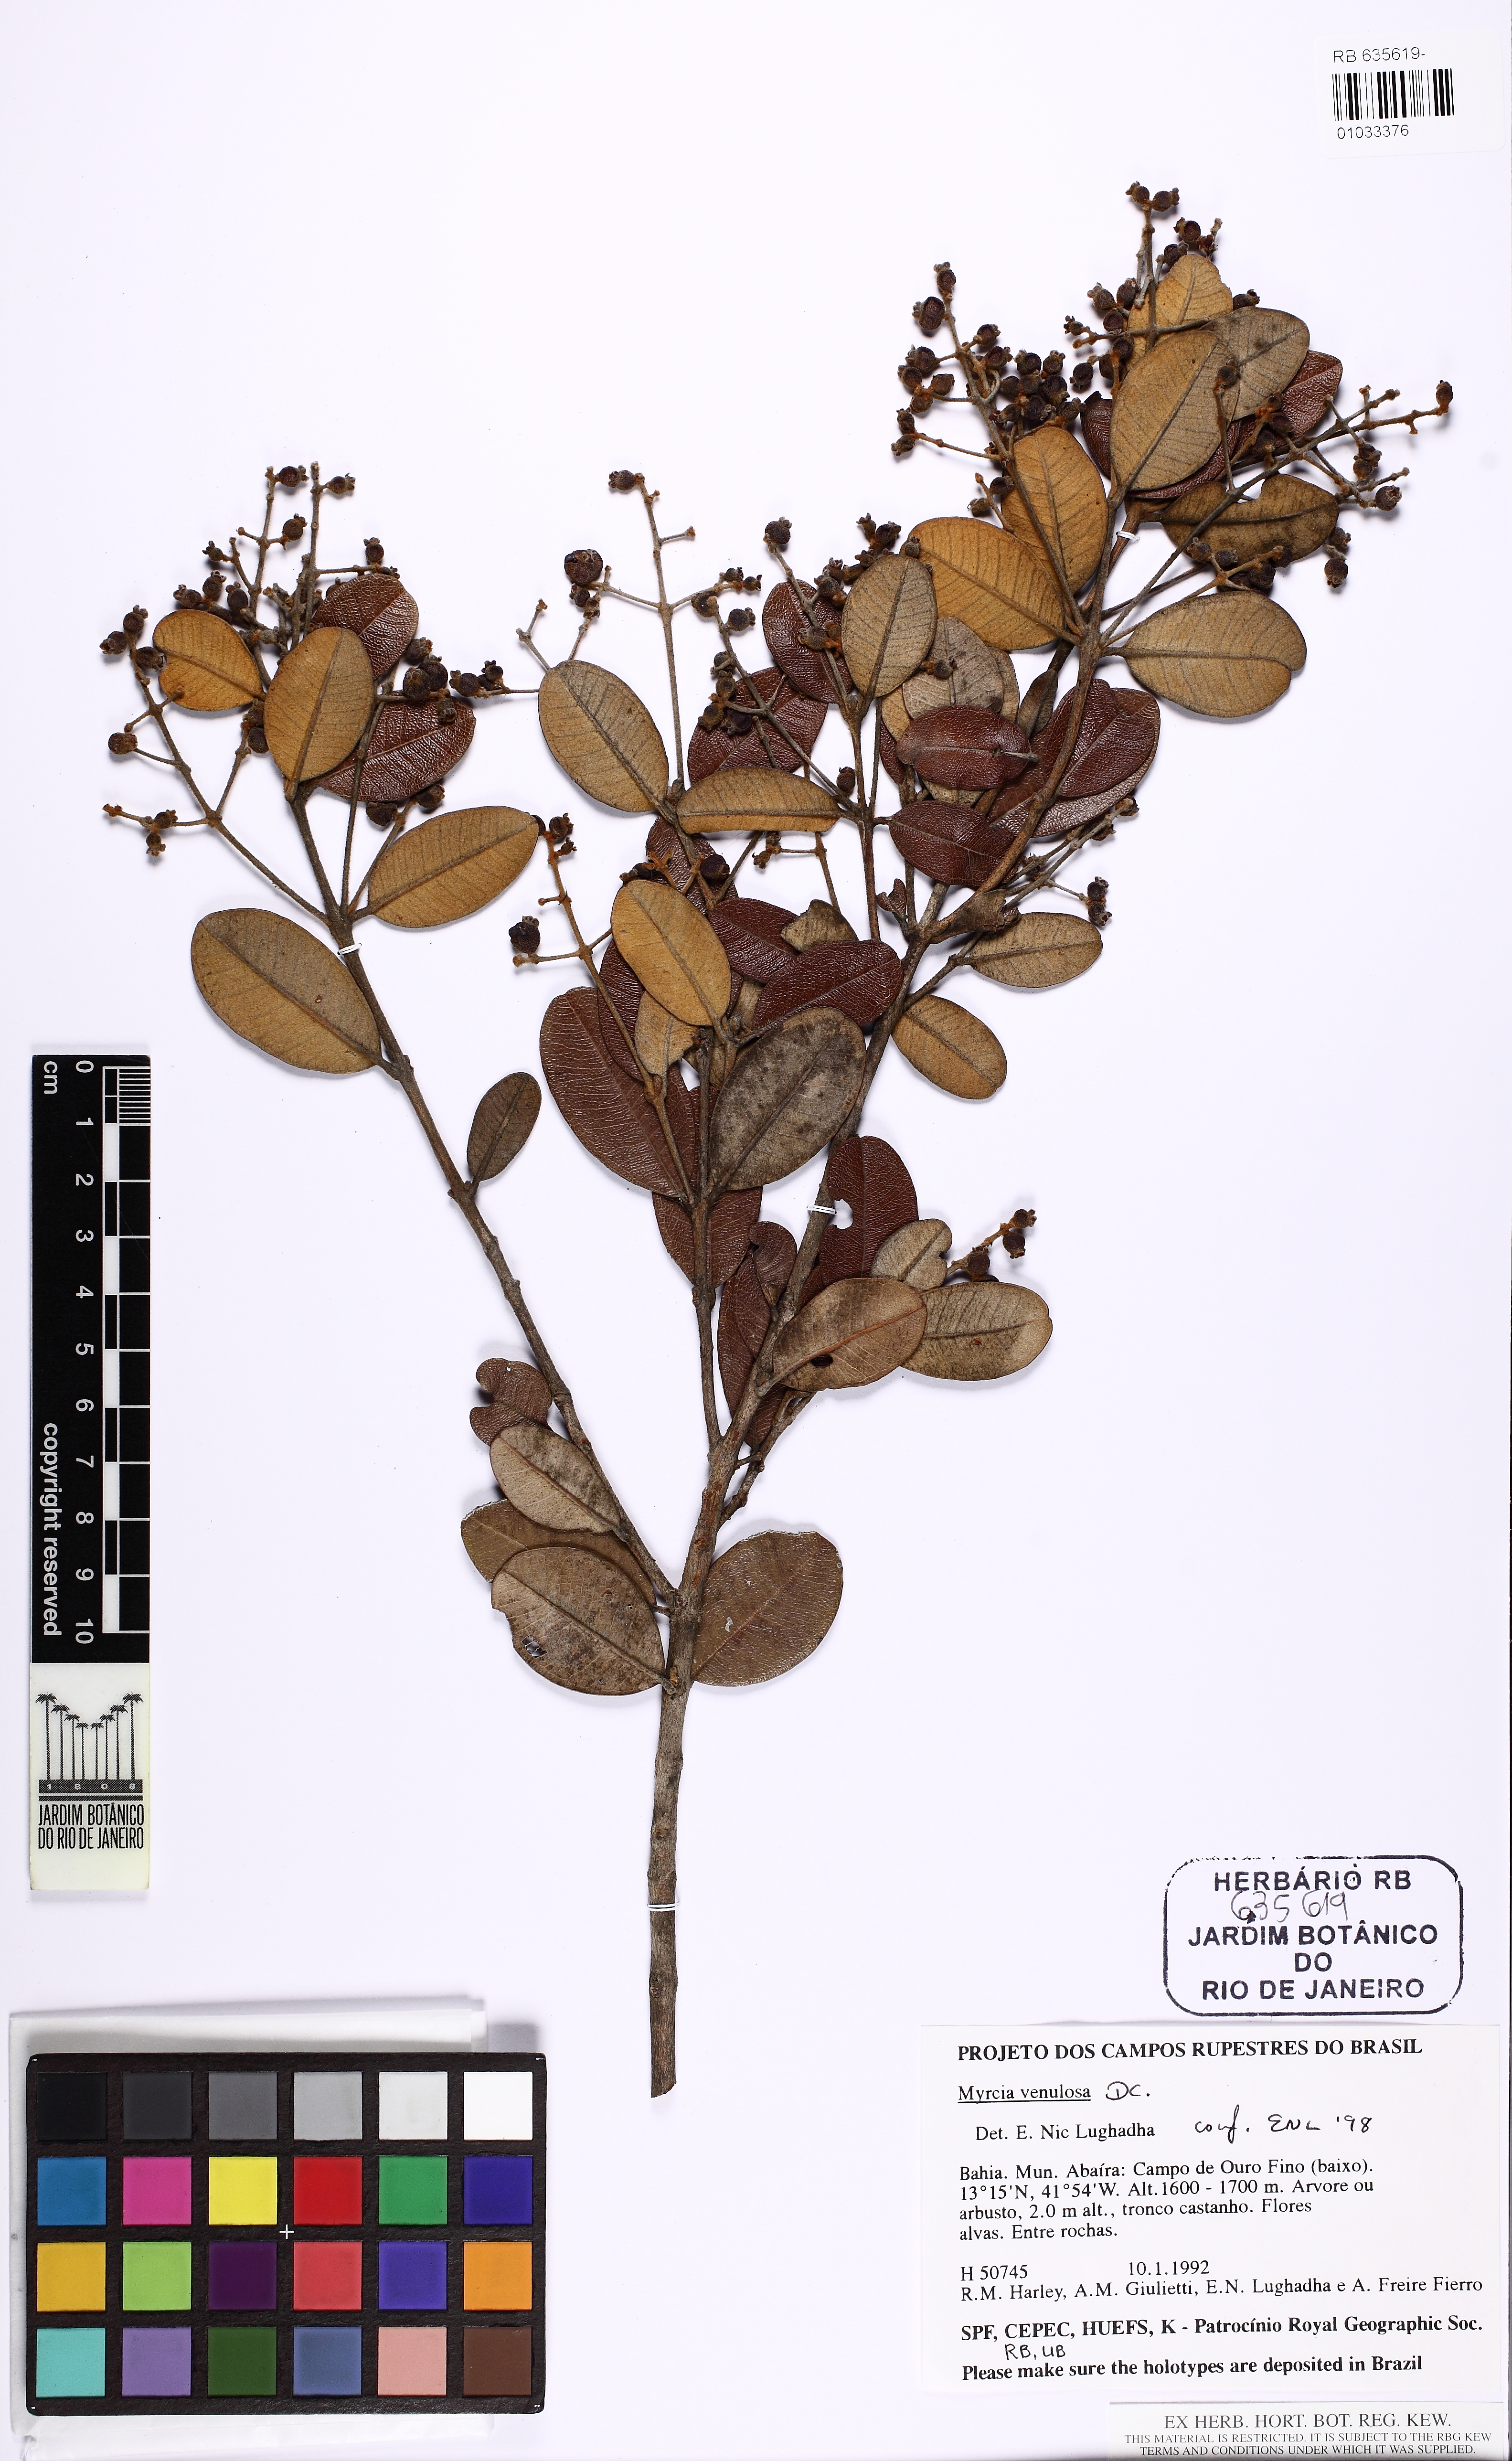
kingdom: Plantae
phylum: Tracheophyta
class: Magnoliopsida
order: Myrtales
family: Myrtaceae
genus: Myrcia
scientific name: Myrcia venulosa
